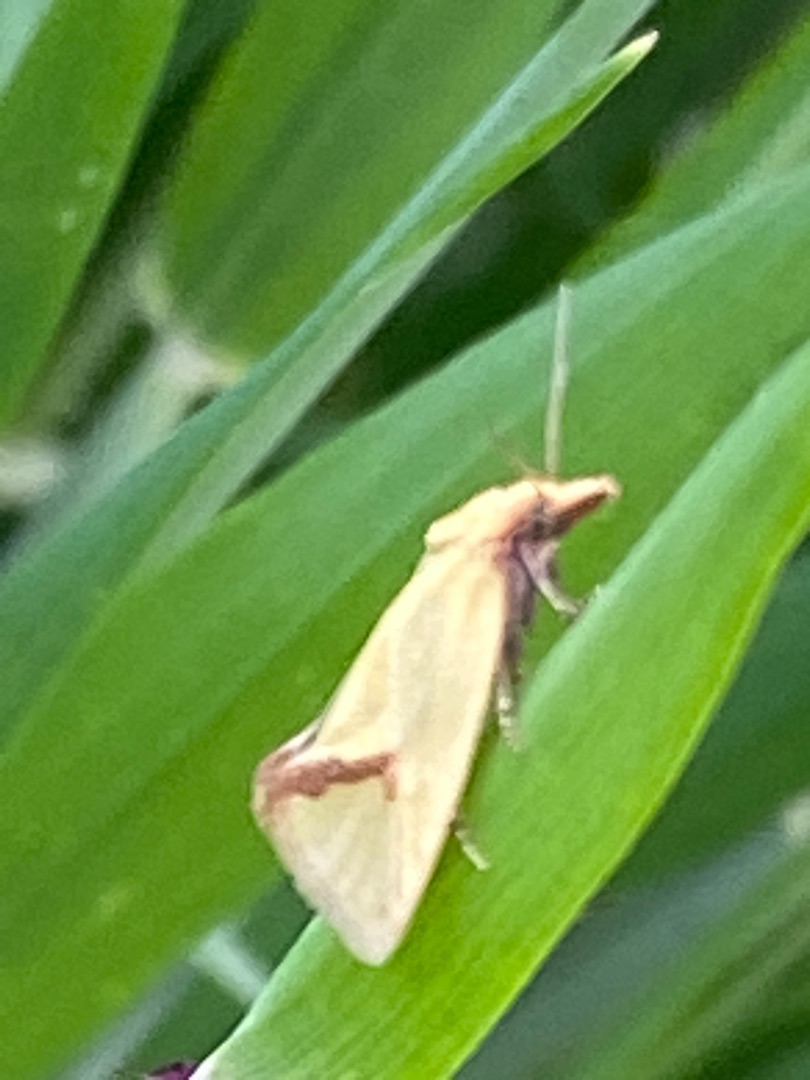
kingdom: Animalia
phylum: Arthropoda
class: Insecta
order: Lepidoptera
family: Tortricidae
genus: Agapeta
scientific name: Agapeta hamana
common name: Tidselgulvikler
